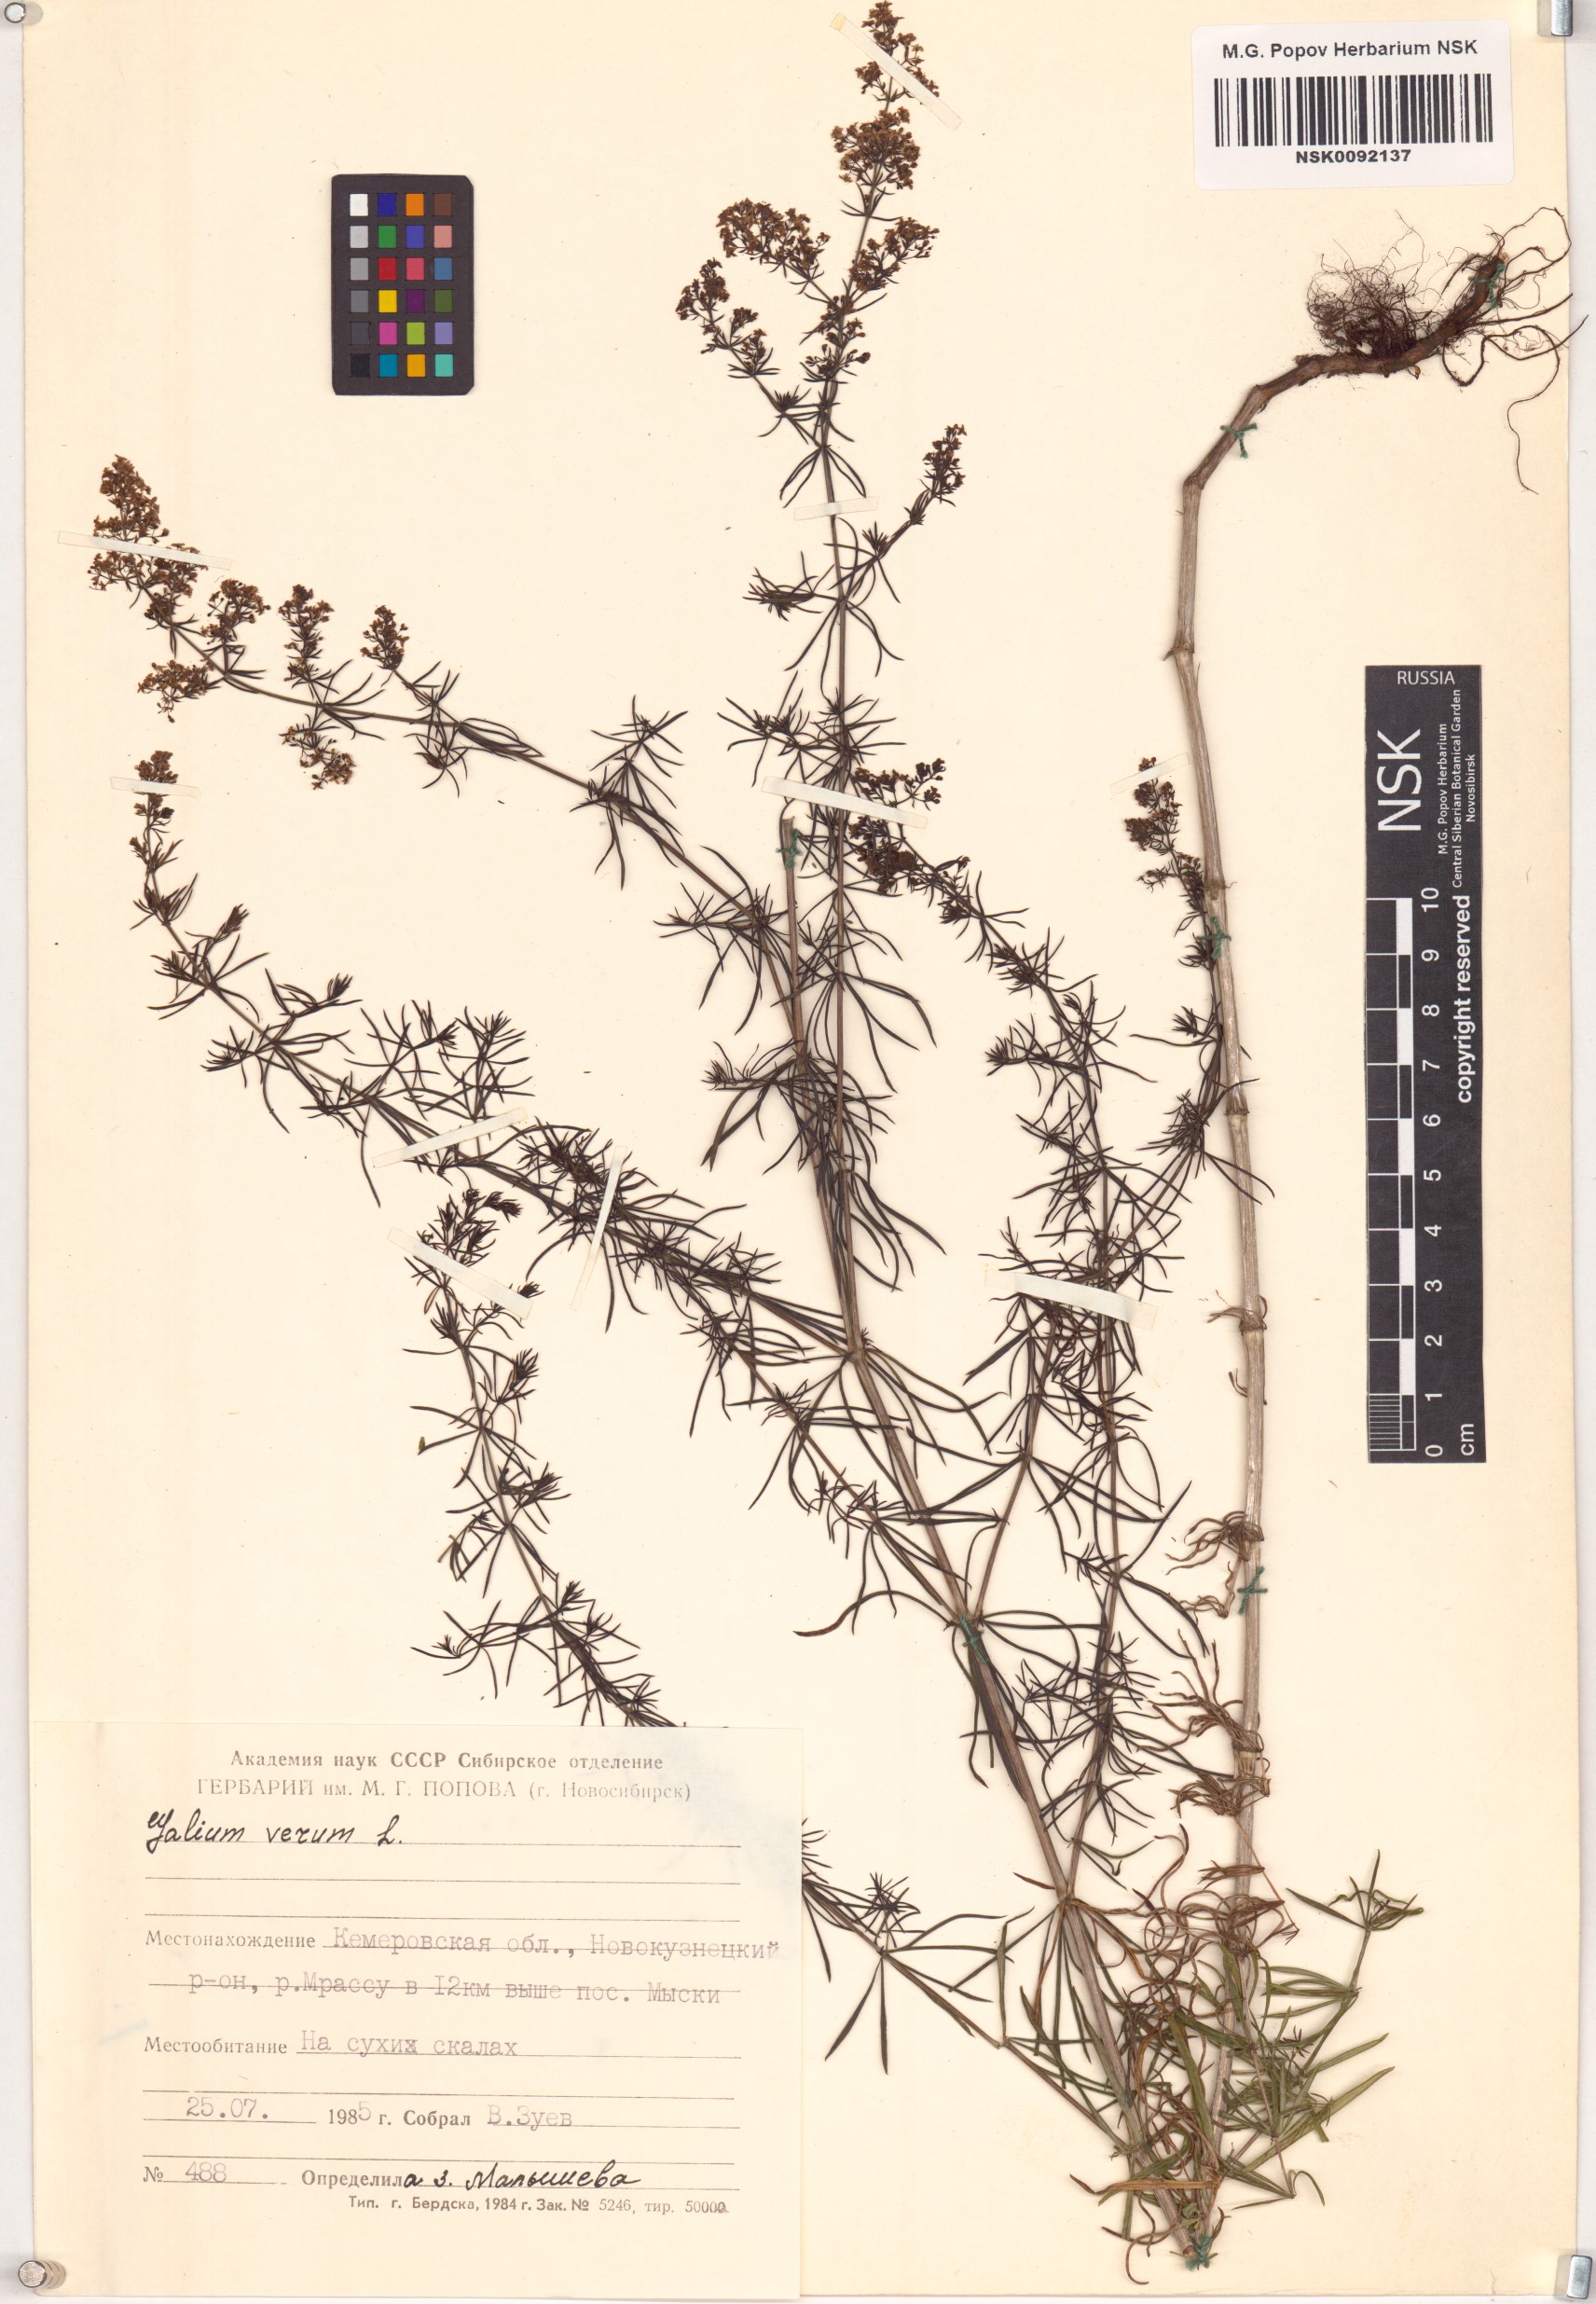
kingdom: Plantae
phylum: Tracheophyta
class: Magnoliopsida
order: Gentianales
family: Rubiaceae
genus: Galium
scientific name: Galium verum
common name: Lady's bedstraw
